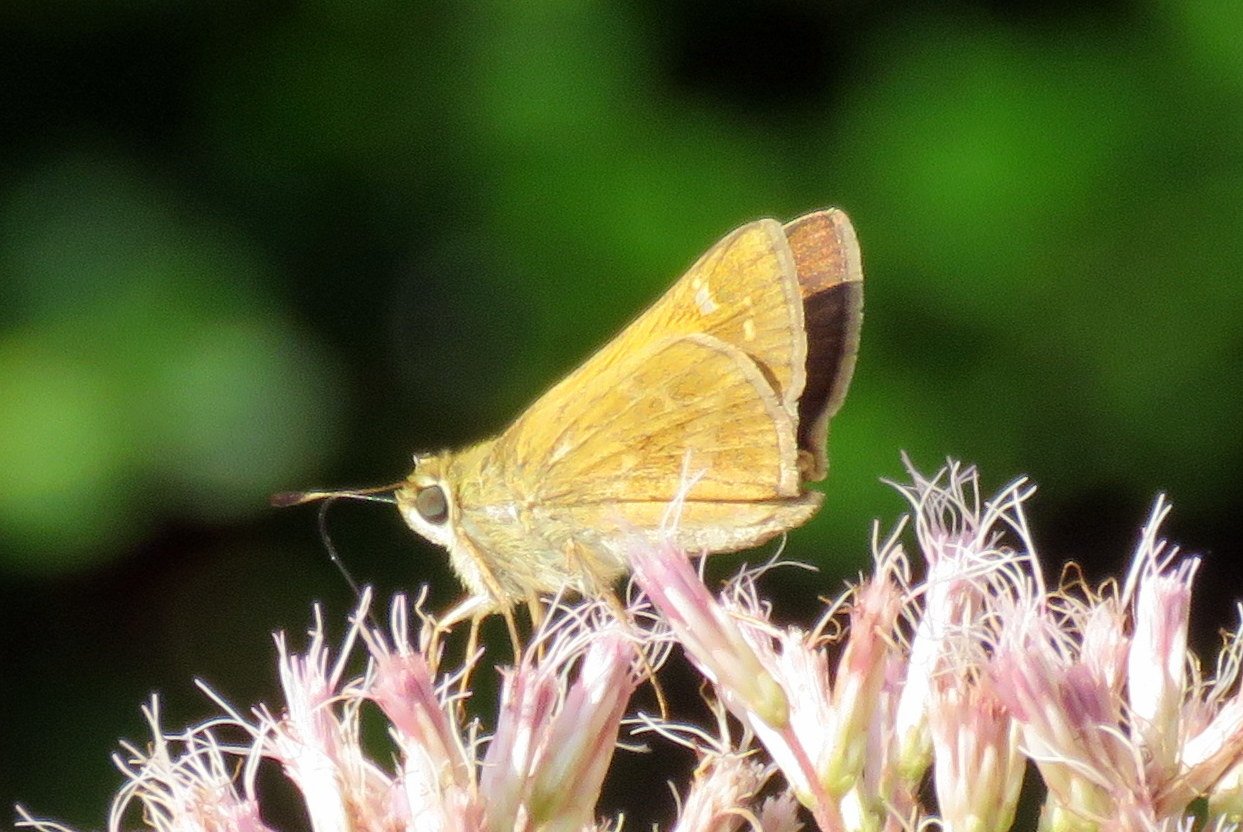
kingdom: Animalia
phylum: Arthropoda
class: Insecta
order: Lepidoptera
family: Hesperiidae
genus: Atalopedes
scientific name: Atalopedes campestris
